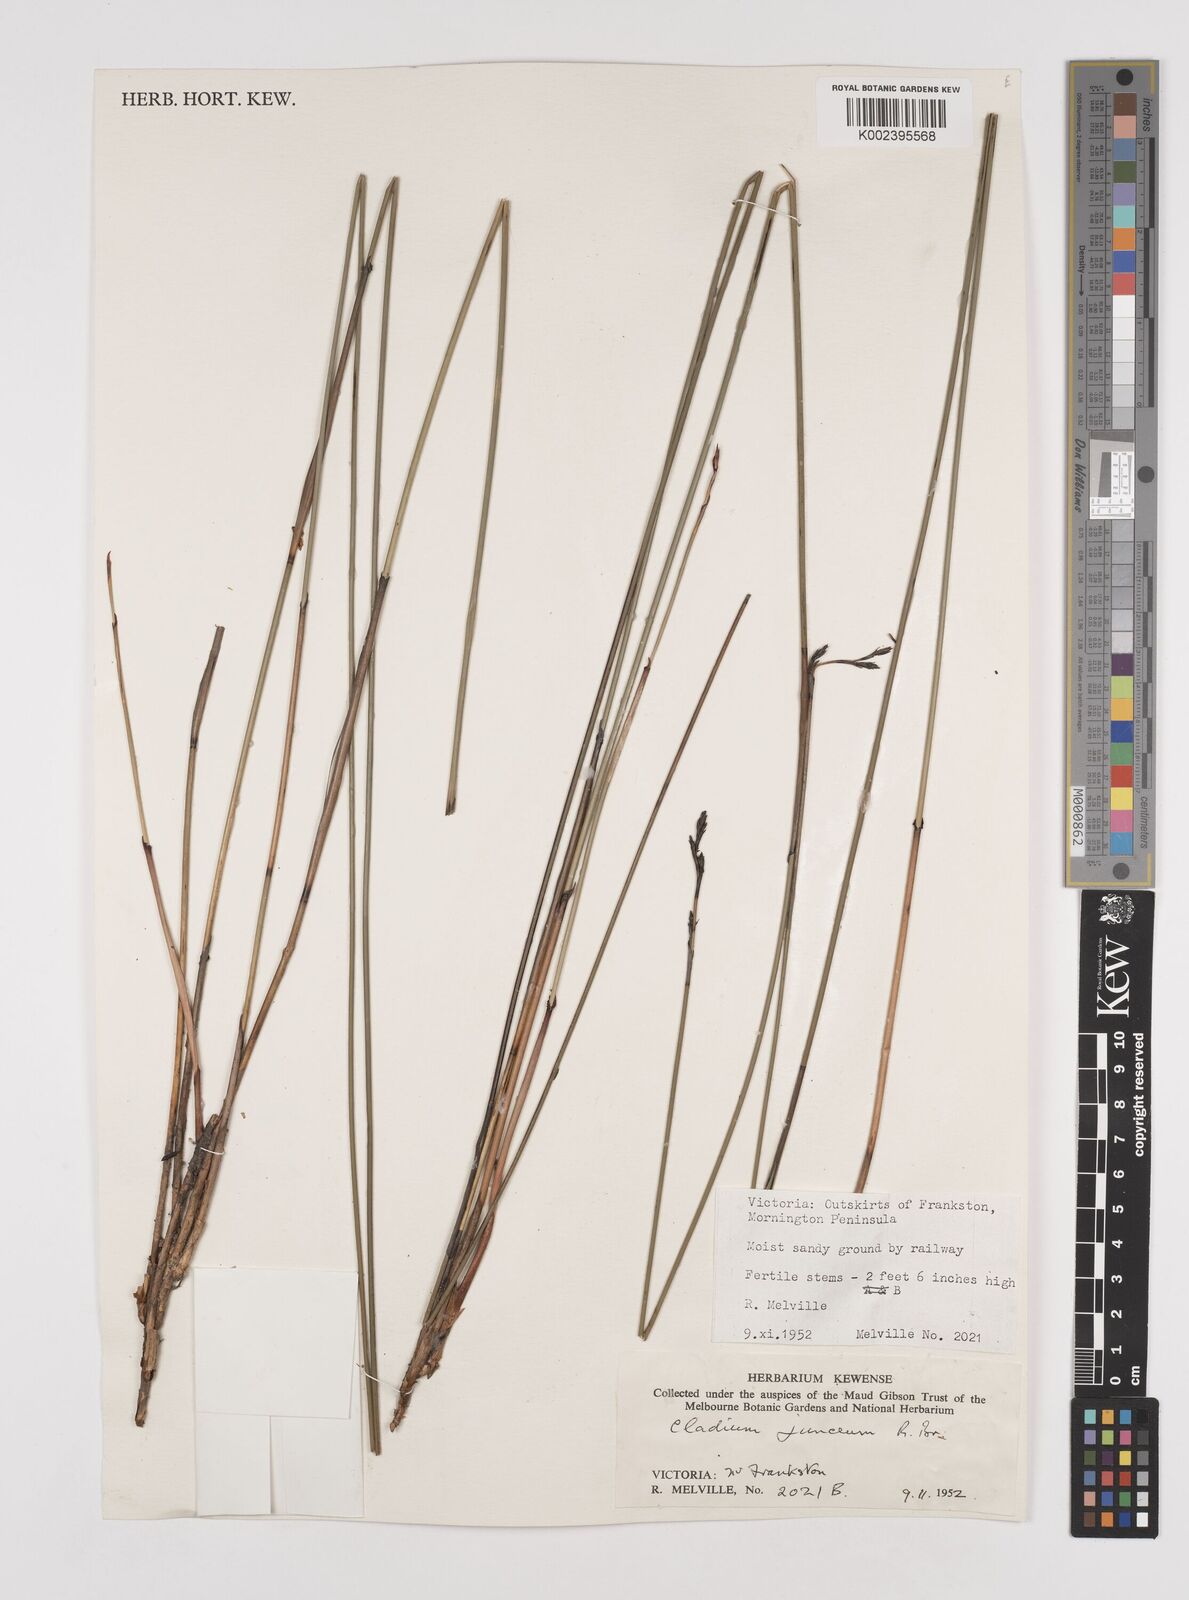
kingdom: Plantae
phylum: Tracheophyta
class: Liliopsida
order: Poales
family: Cyperaceae
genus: Machaerina
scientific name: Machaerina juncea
